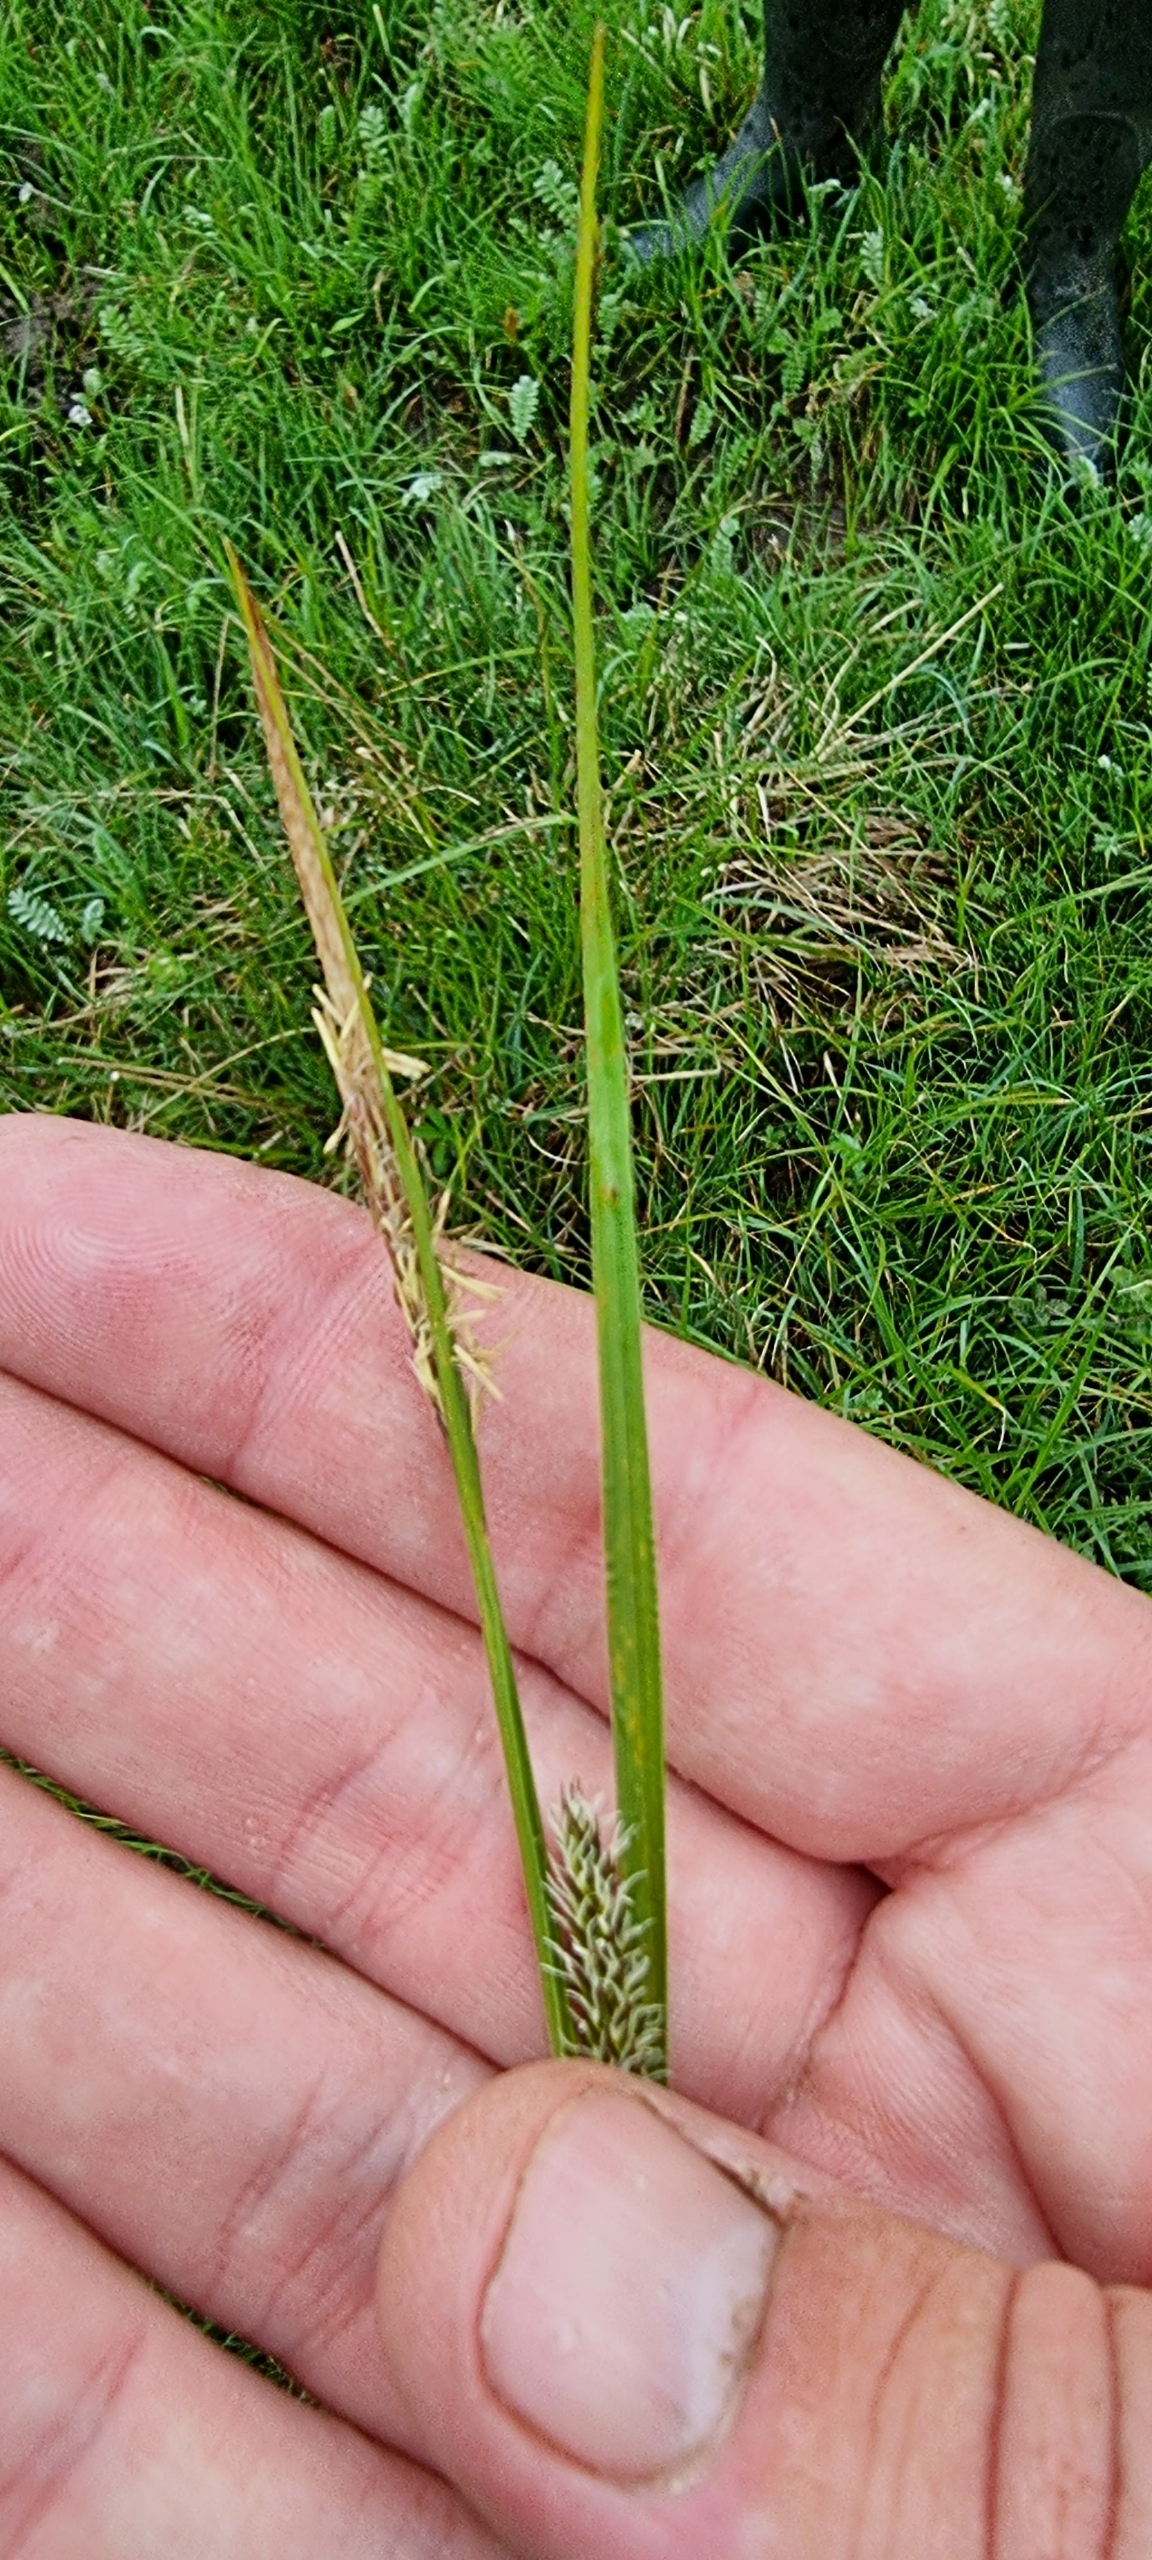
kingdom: Plantae
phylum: Tracheophyta
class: Liliopsida
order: Poales
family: Cyperaceae
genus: Carex
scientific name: Carex hostiana
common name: Skede-star
